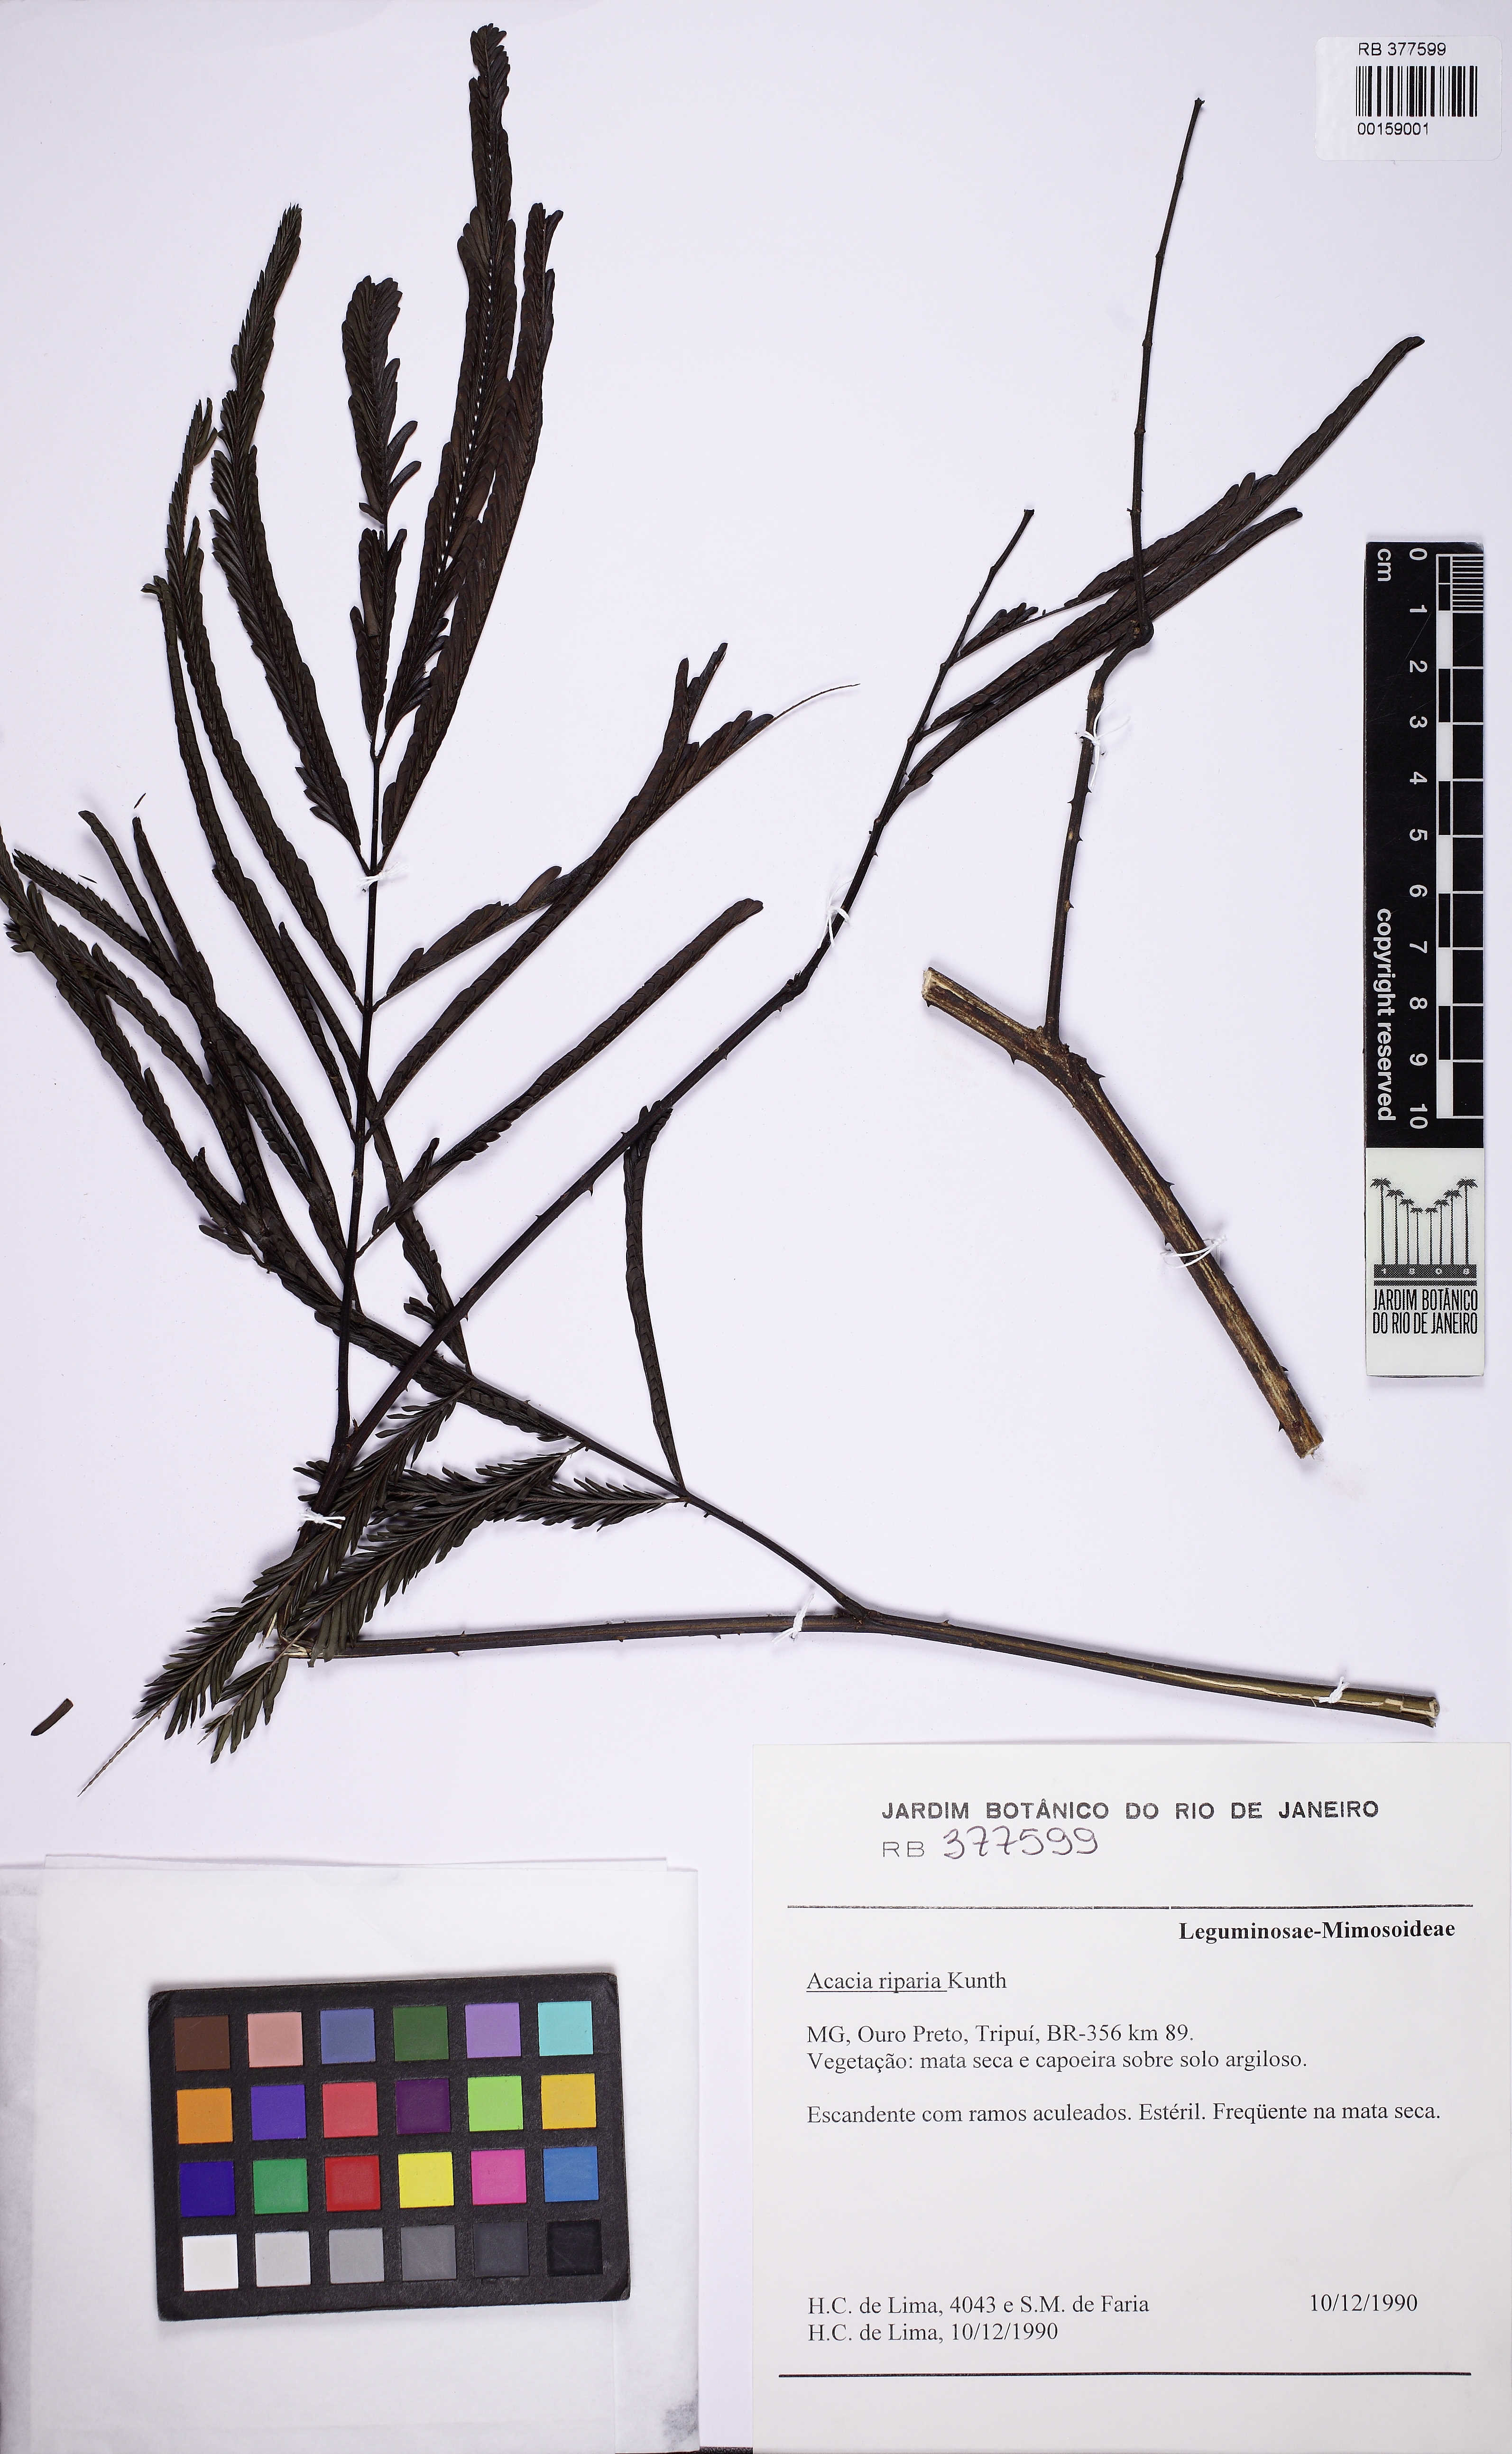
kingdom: Plantae
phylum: Tracheophyta
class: Magnoliopsida
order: Fabales
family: Fabaceae
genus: Senegalia
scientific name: Senegalia riparia
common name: Catch-and-keep
